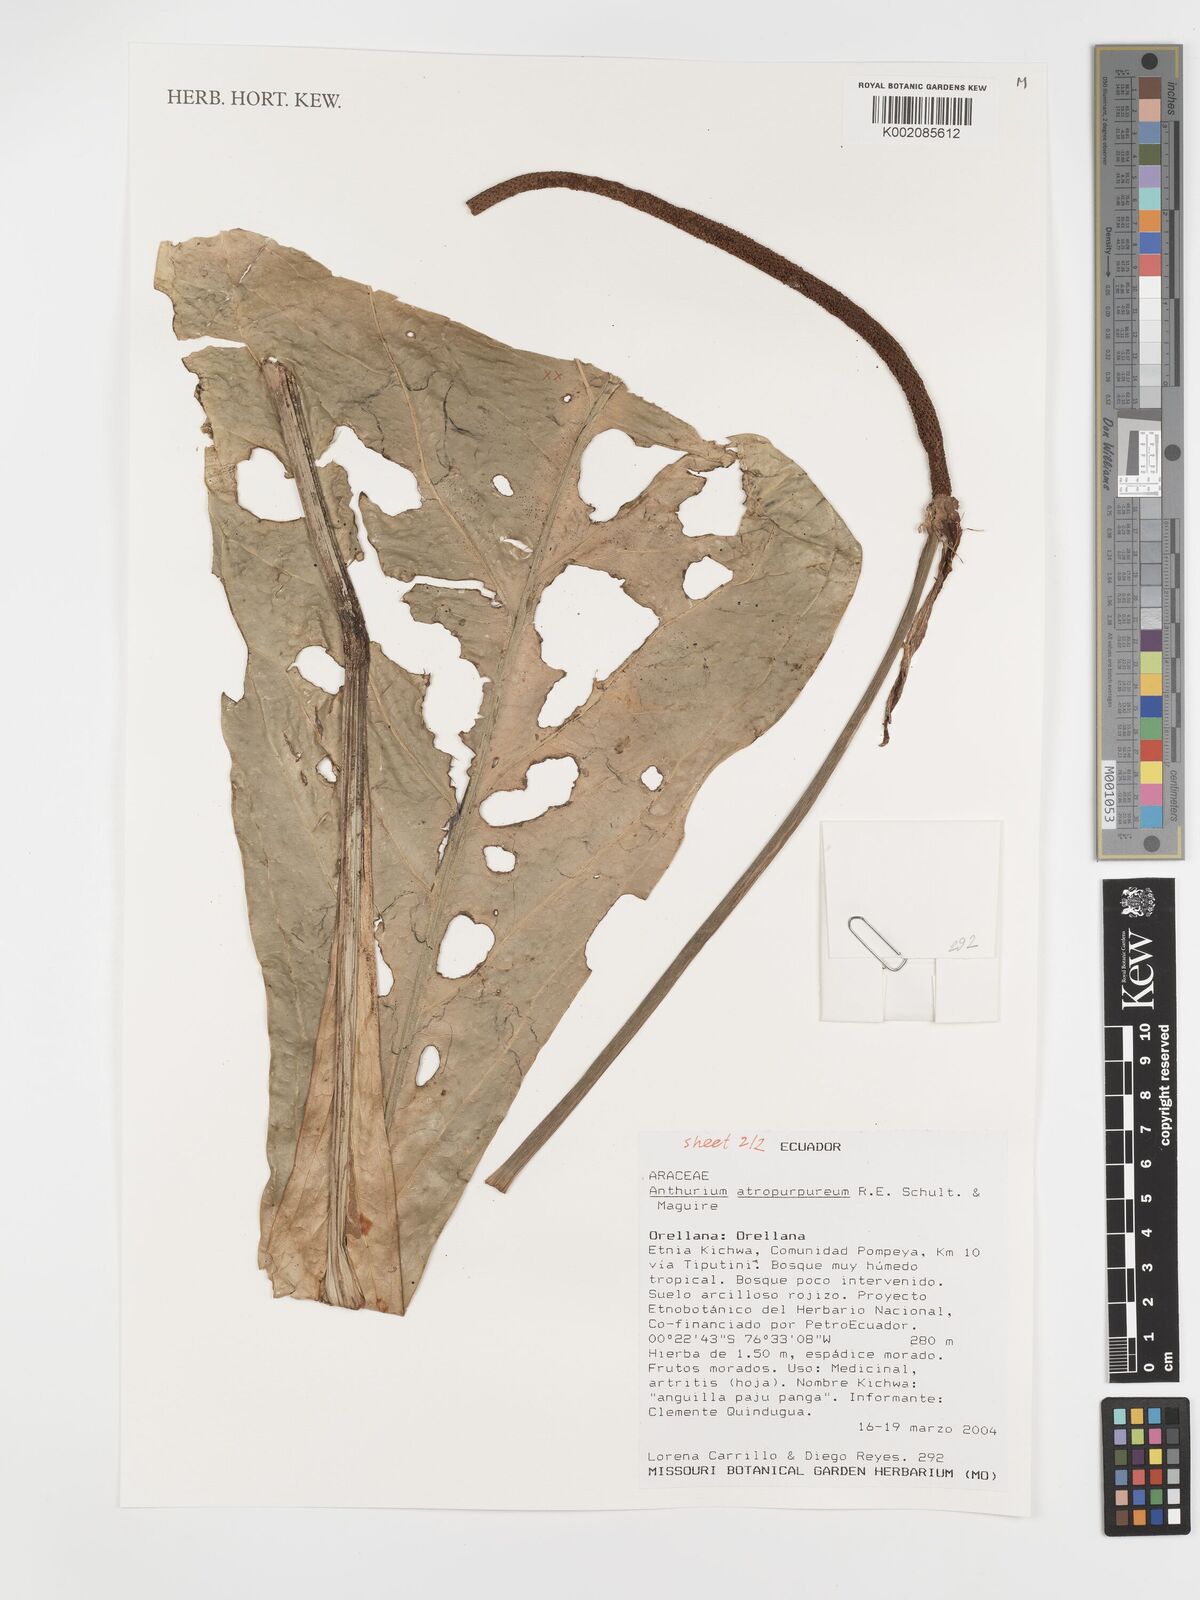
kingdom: Plantae
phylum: Tracheophyta
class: Liliopsida
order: Alismatales
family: Araceae
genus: Anthurium
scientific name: Anthurium atropurpureum
